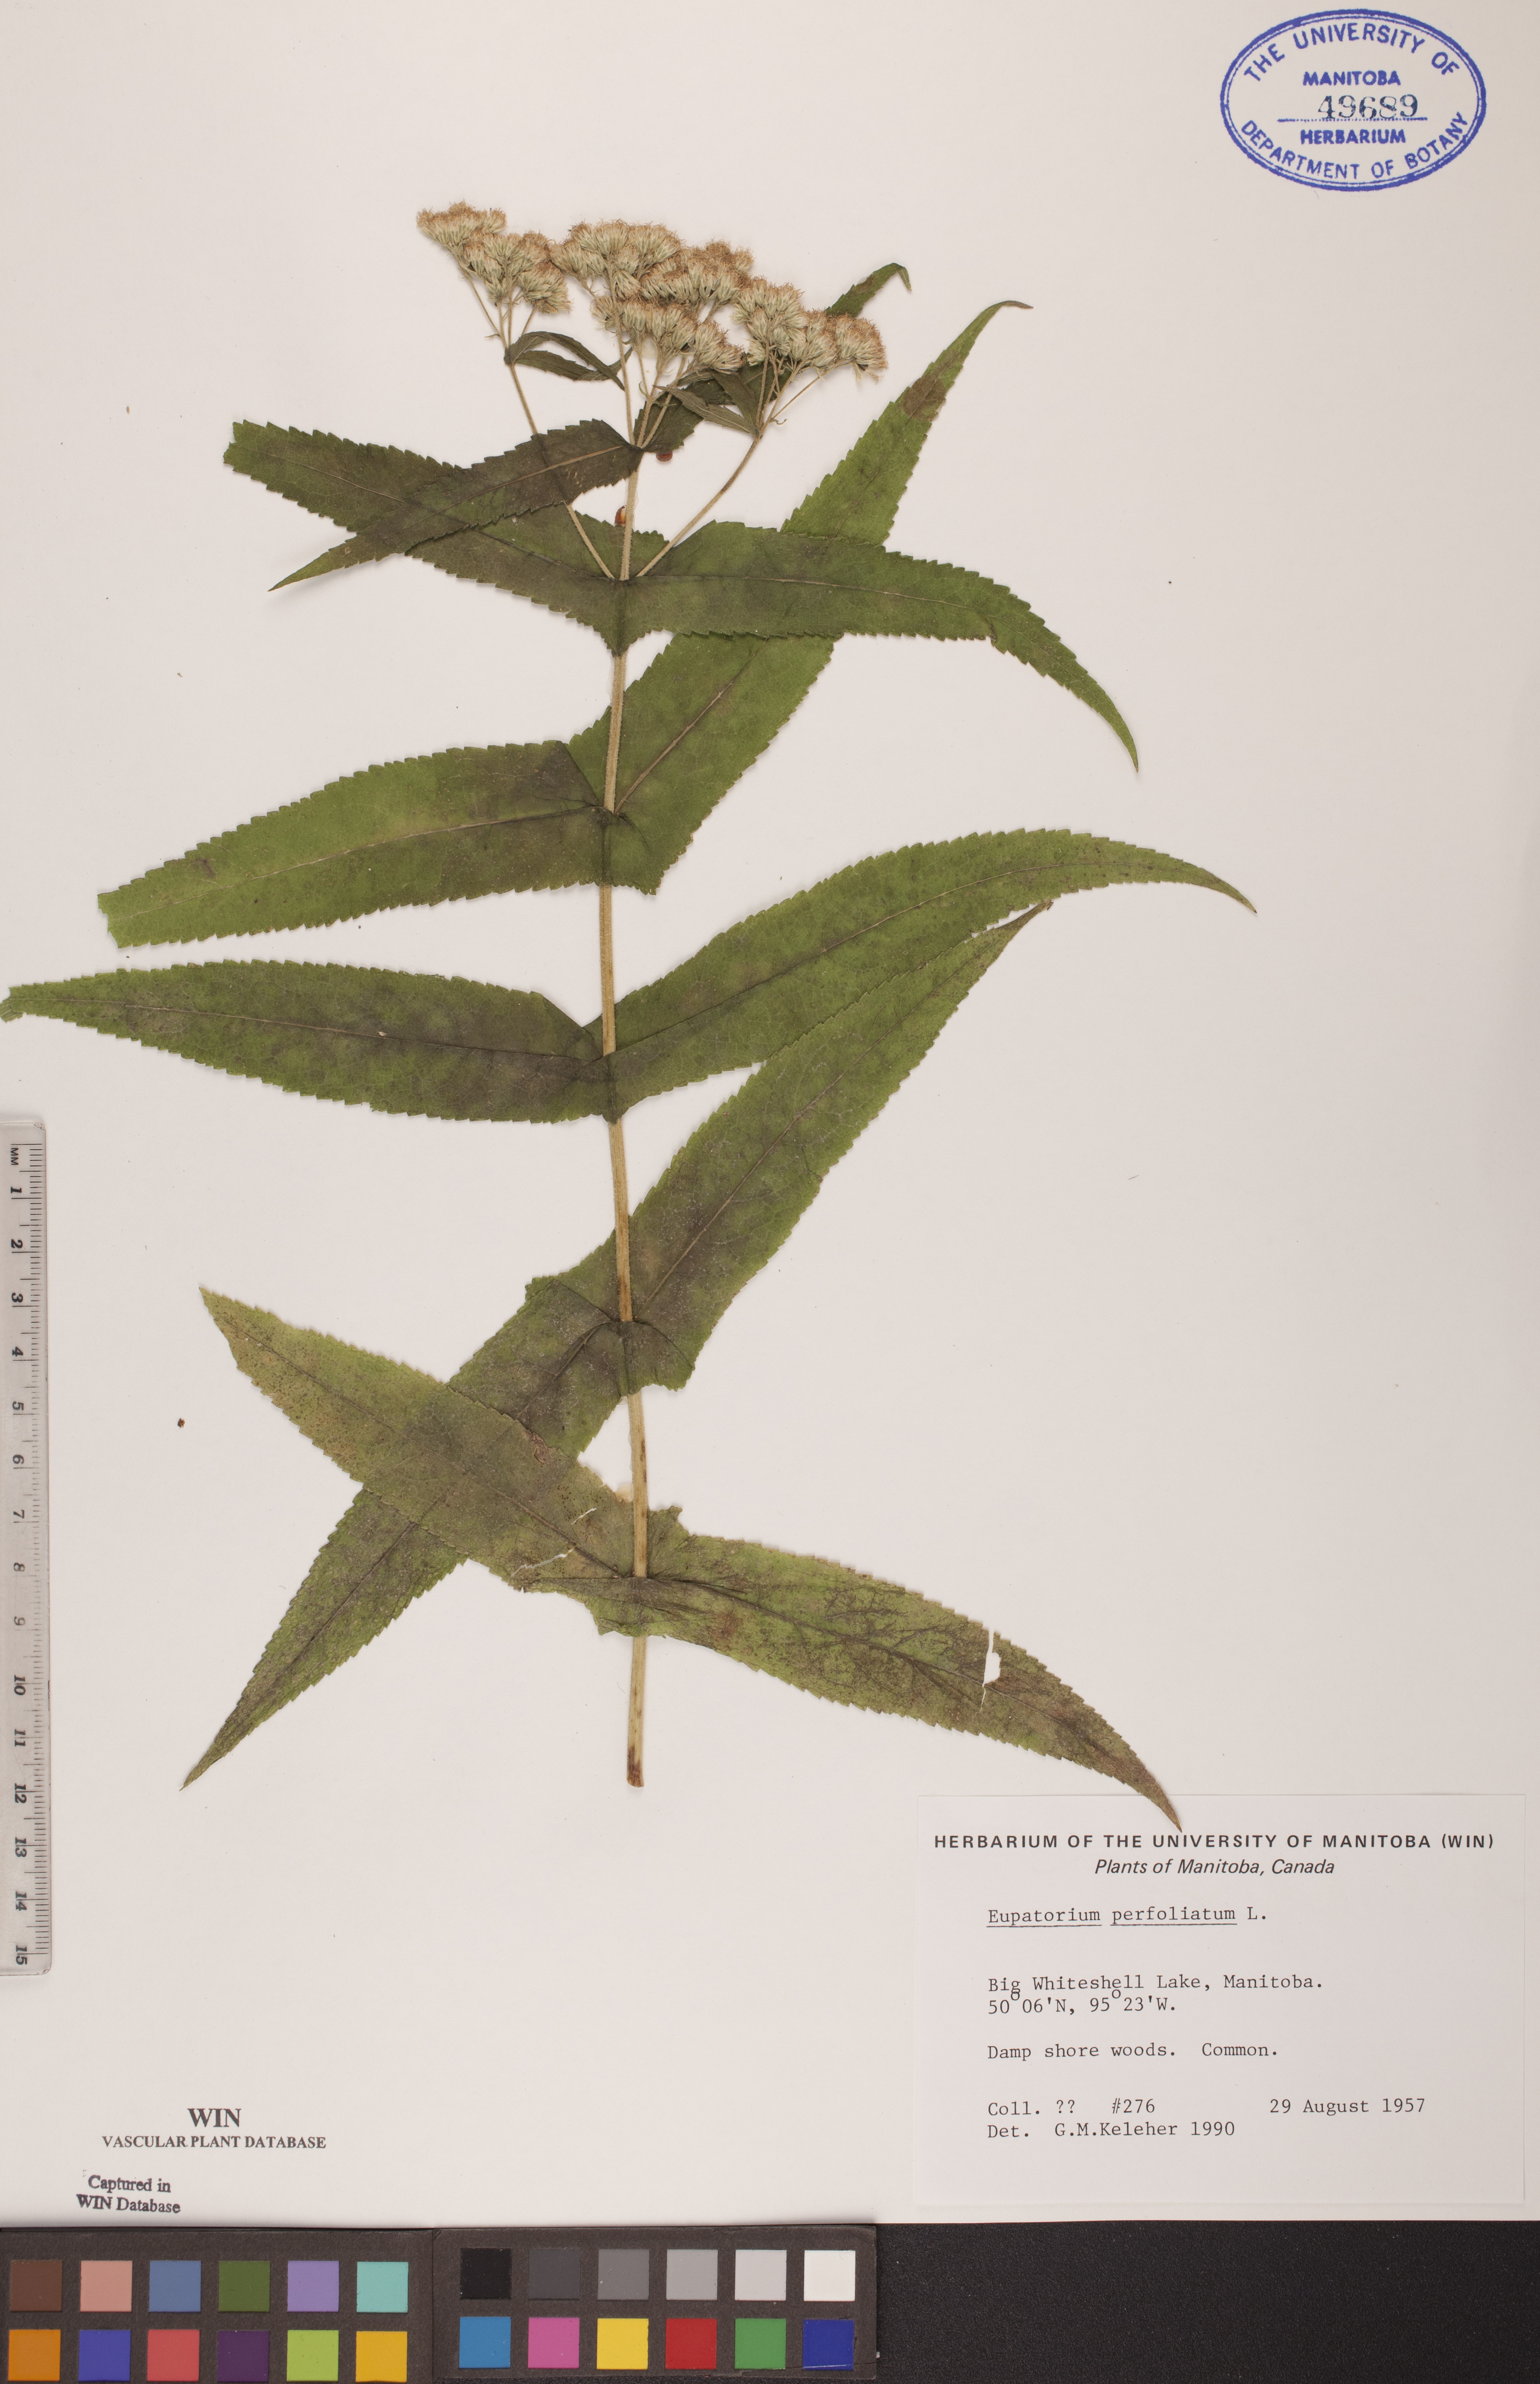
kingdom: Plantae
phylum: Tracheophyta
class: Magnoliopsida
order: Asterales
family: Asteraceae
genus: Eupatorium
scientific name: Eupatorium perfoliatum
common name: Boneset
